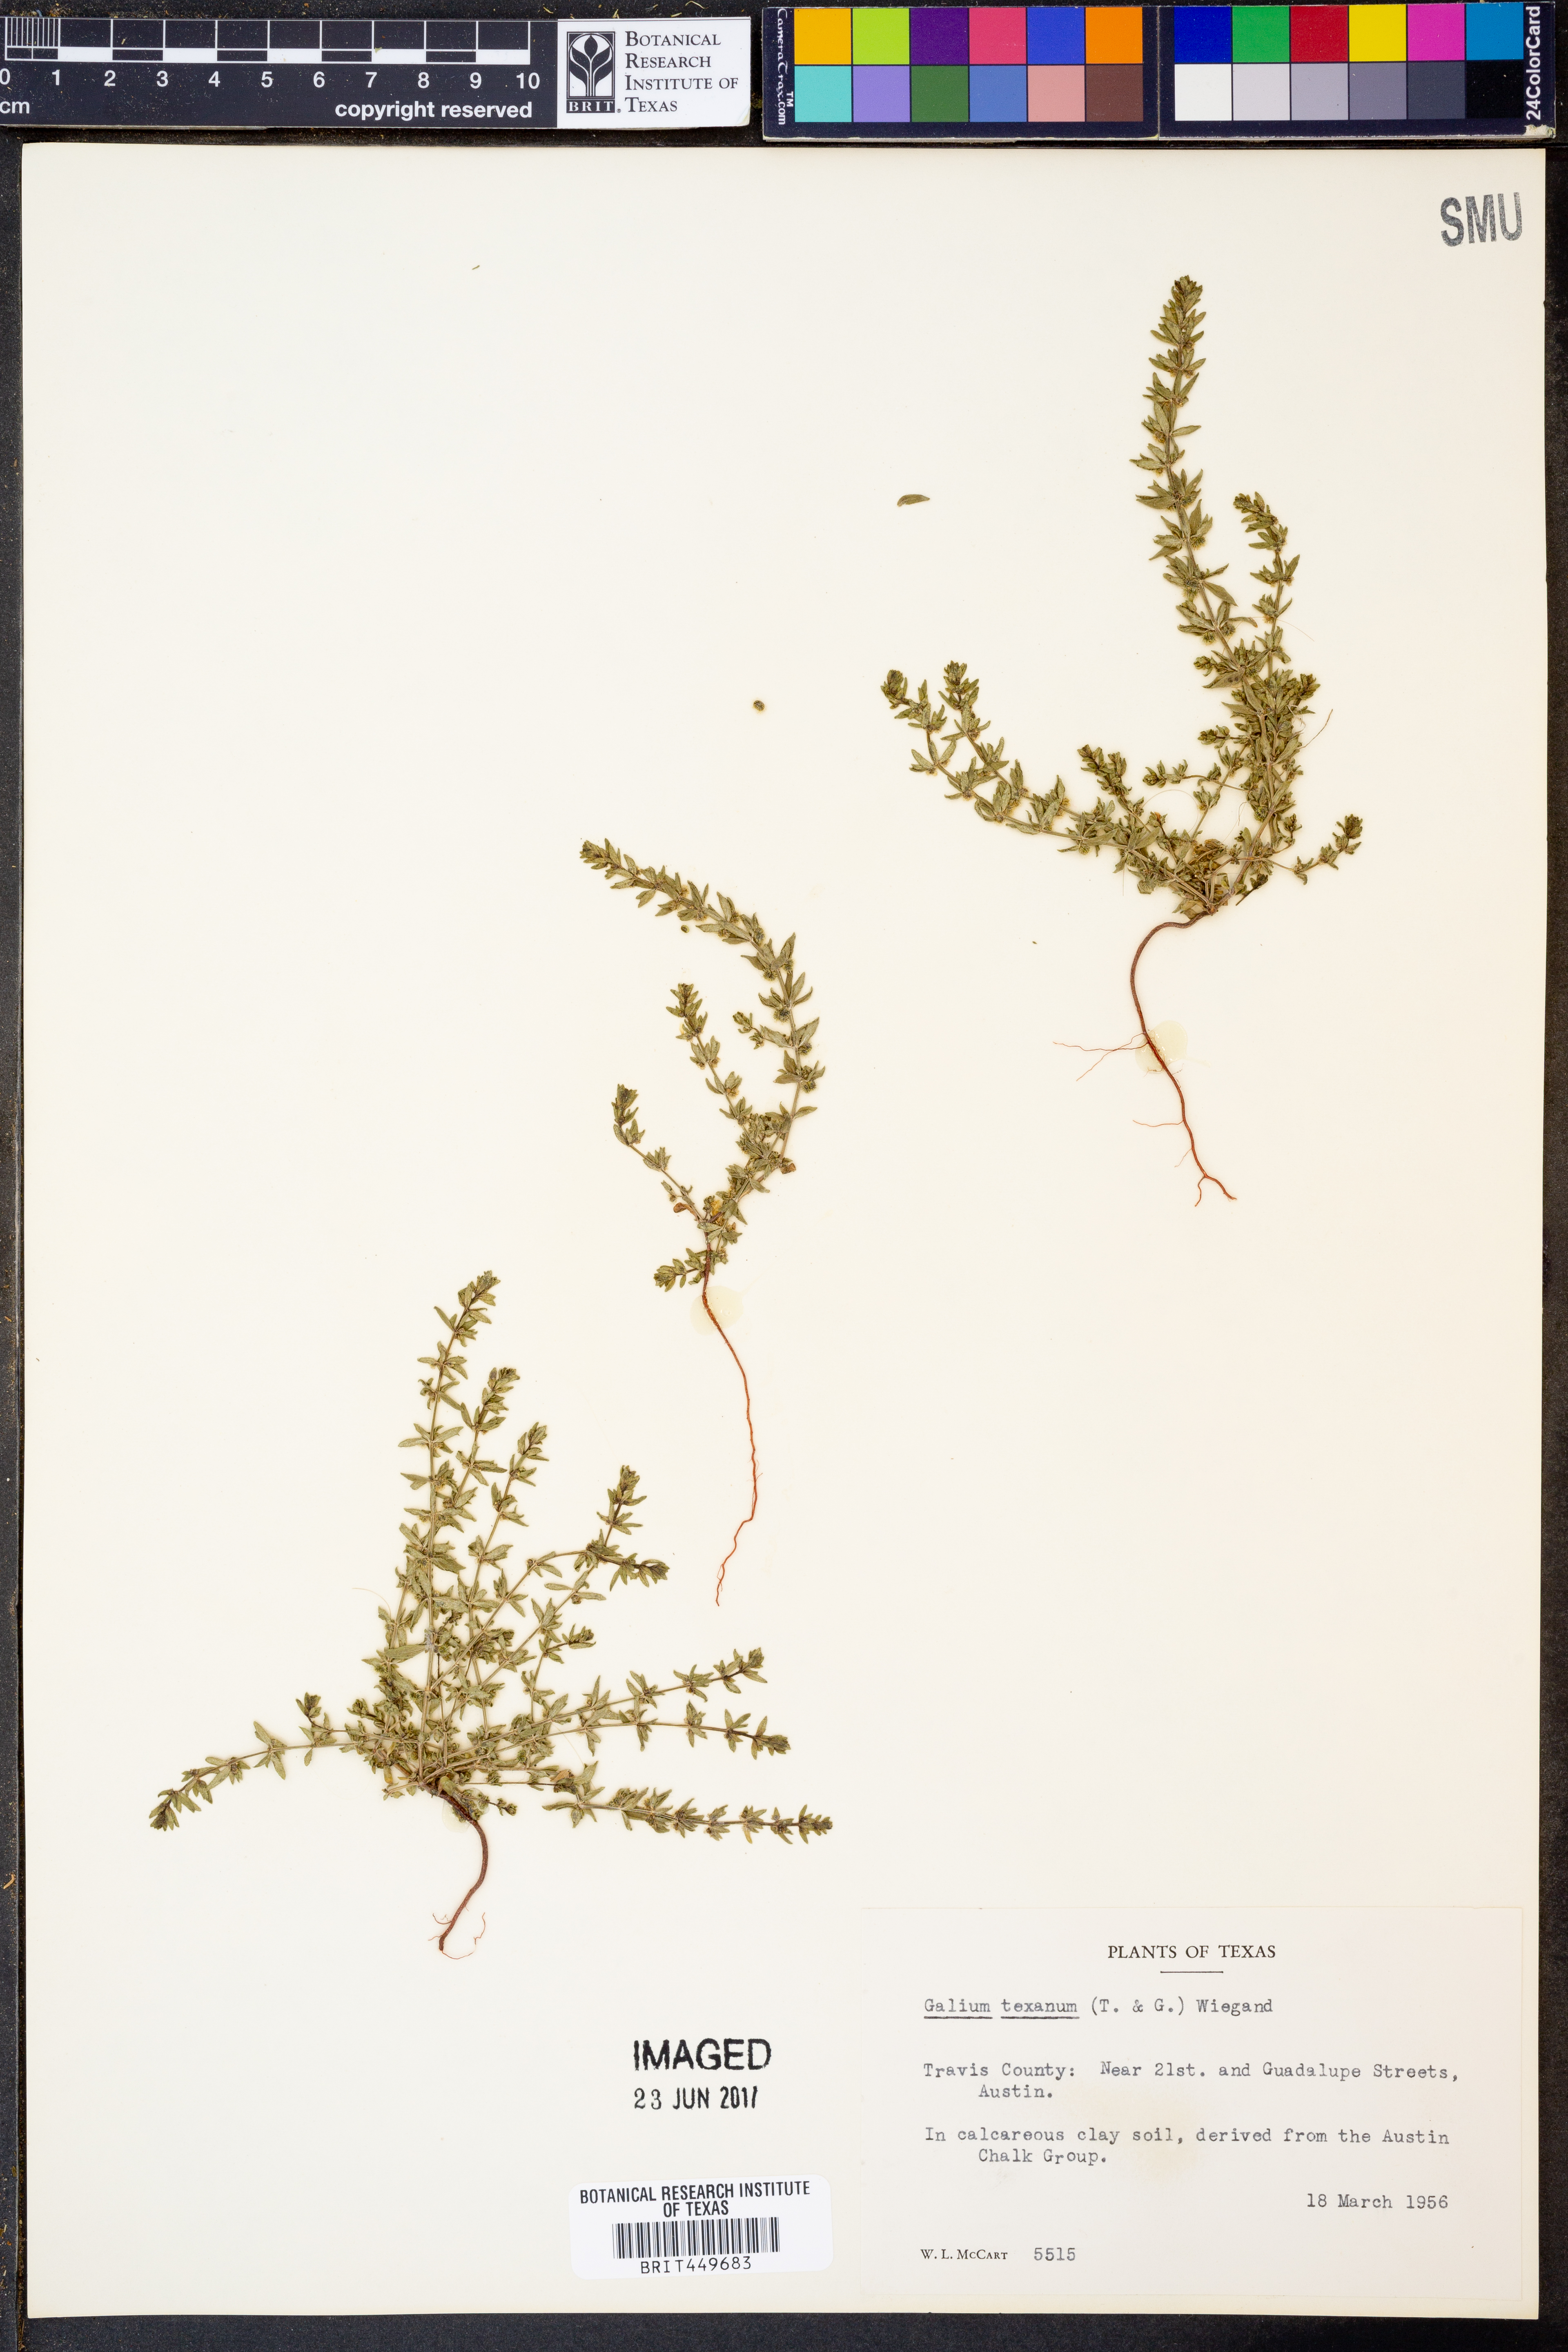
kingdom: Plantae
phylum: Tracheophyta
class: Magnoliopsida
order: Gentianales
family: Rubiaceae
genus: Galium
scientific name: Galium texense
